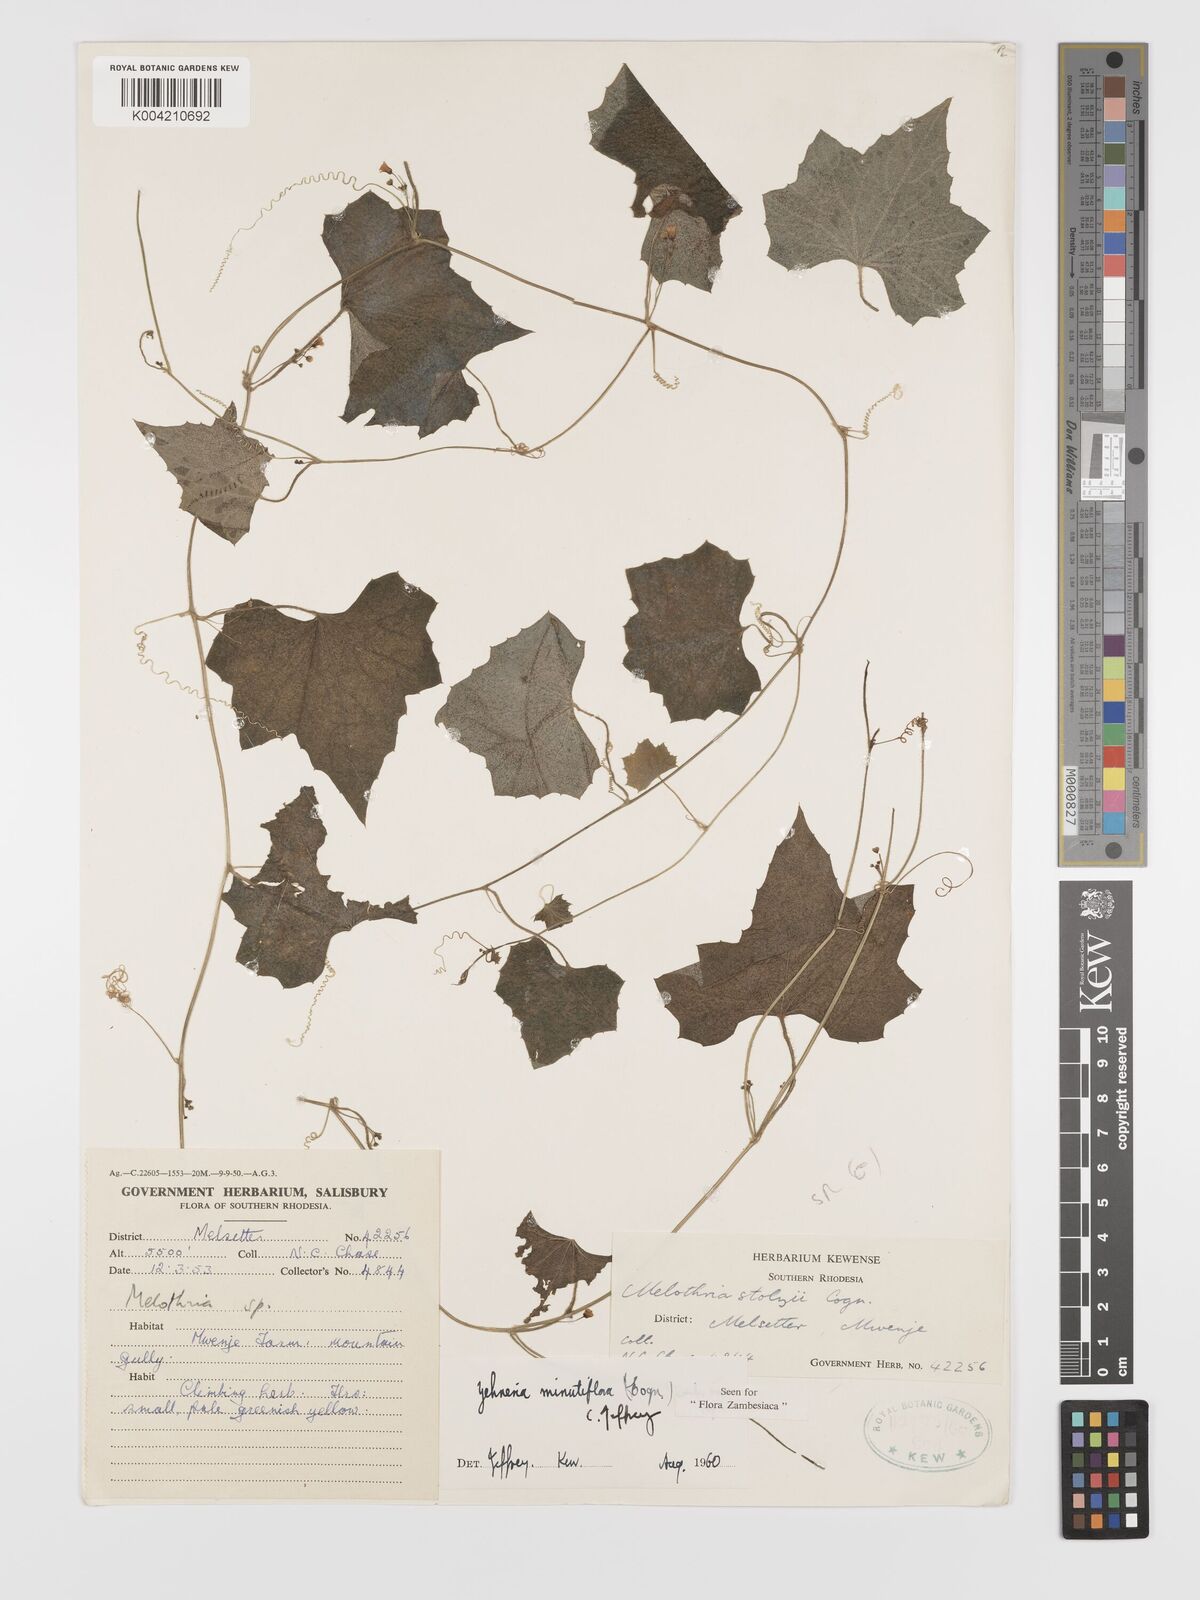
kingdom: Plantae
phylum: Tracheophyta
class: Magnoliopsida
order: Cucurbitales
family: Cucurbitaceae
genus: Zehneria
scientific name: Zehneria minutiflora
